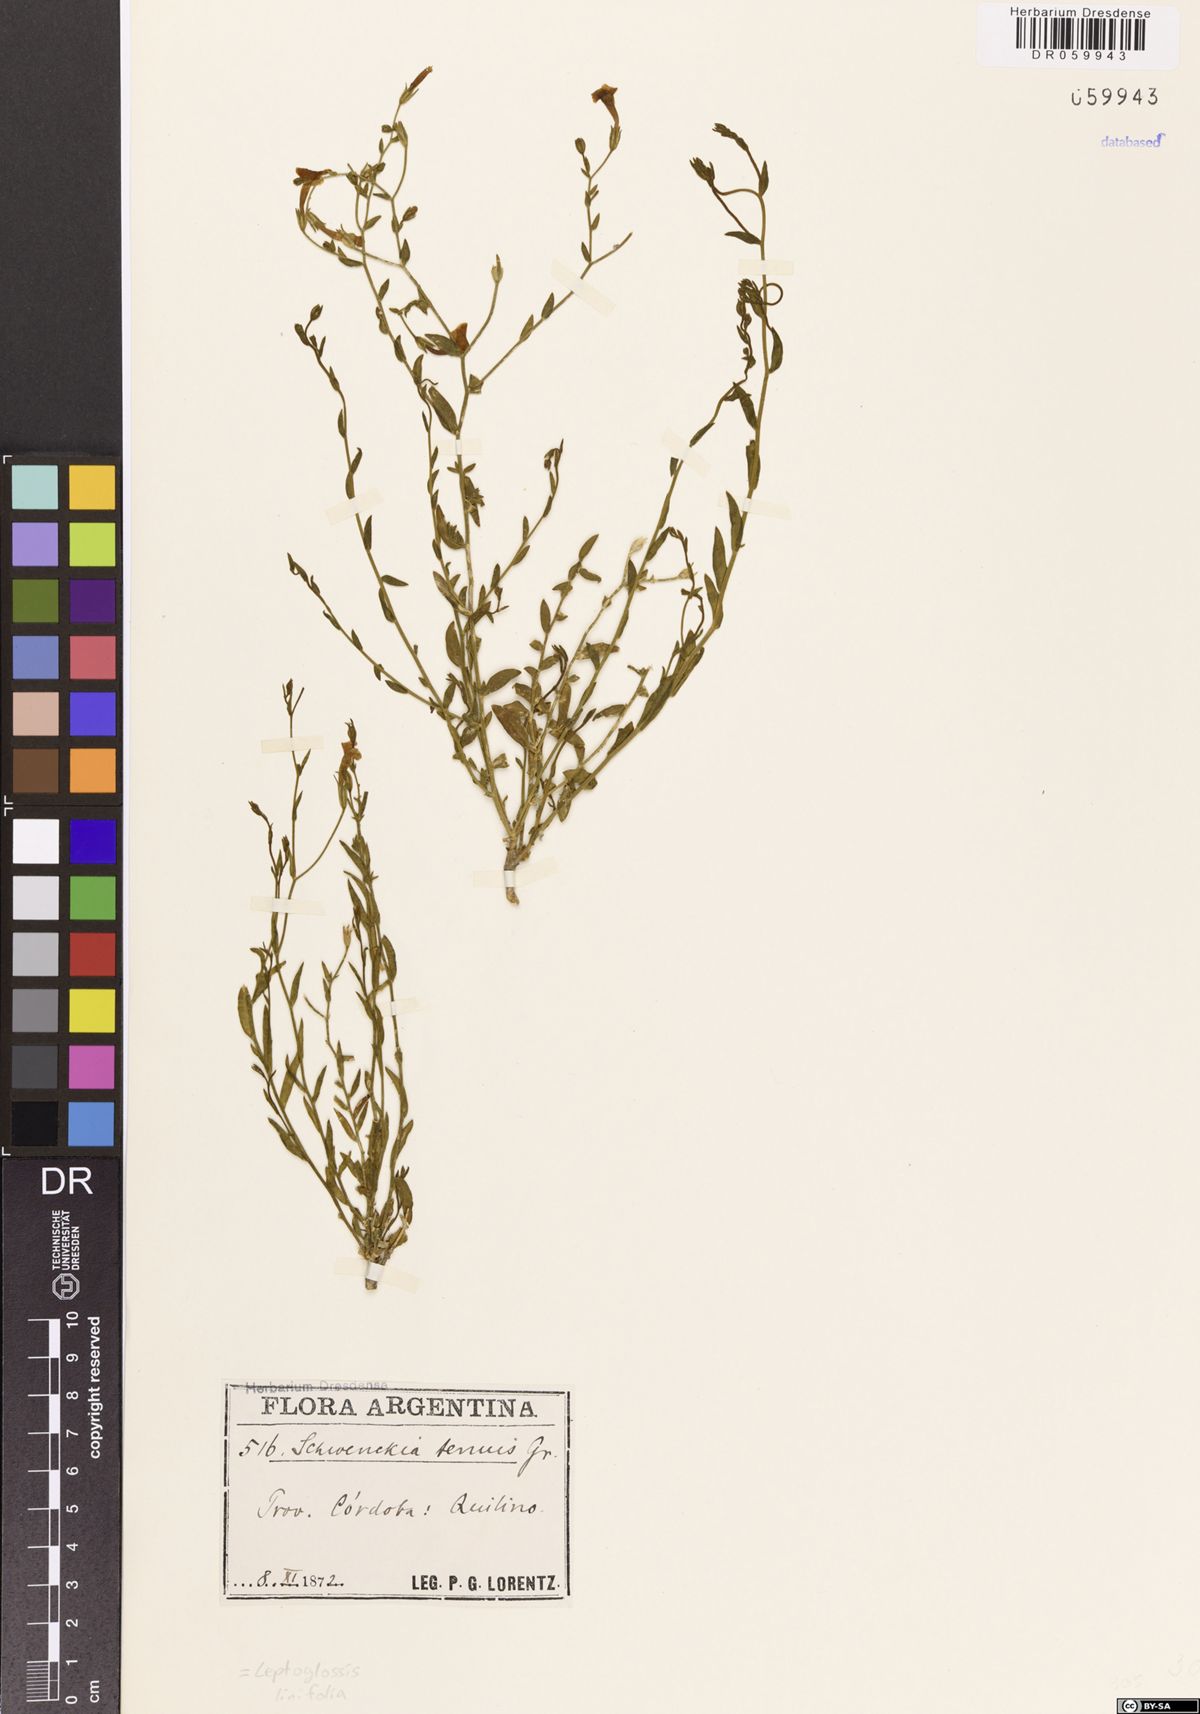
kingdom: Plantae
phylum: Tracheophyta
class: Magnoliopsida
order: Solanales
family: Solanaceae
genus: Leptoglossis
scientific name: Leptoglossis linifolia
